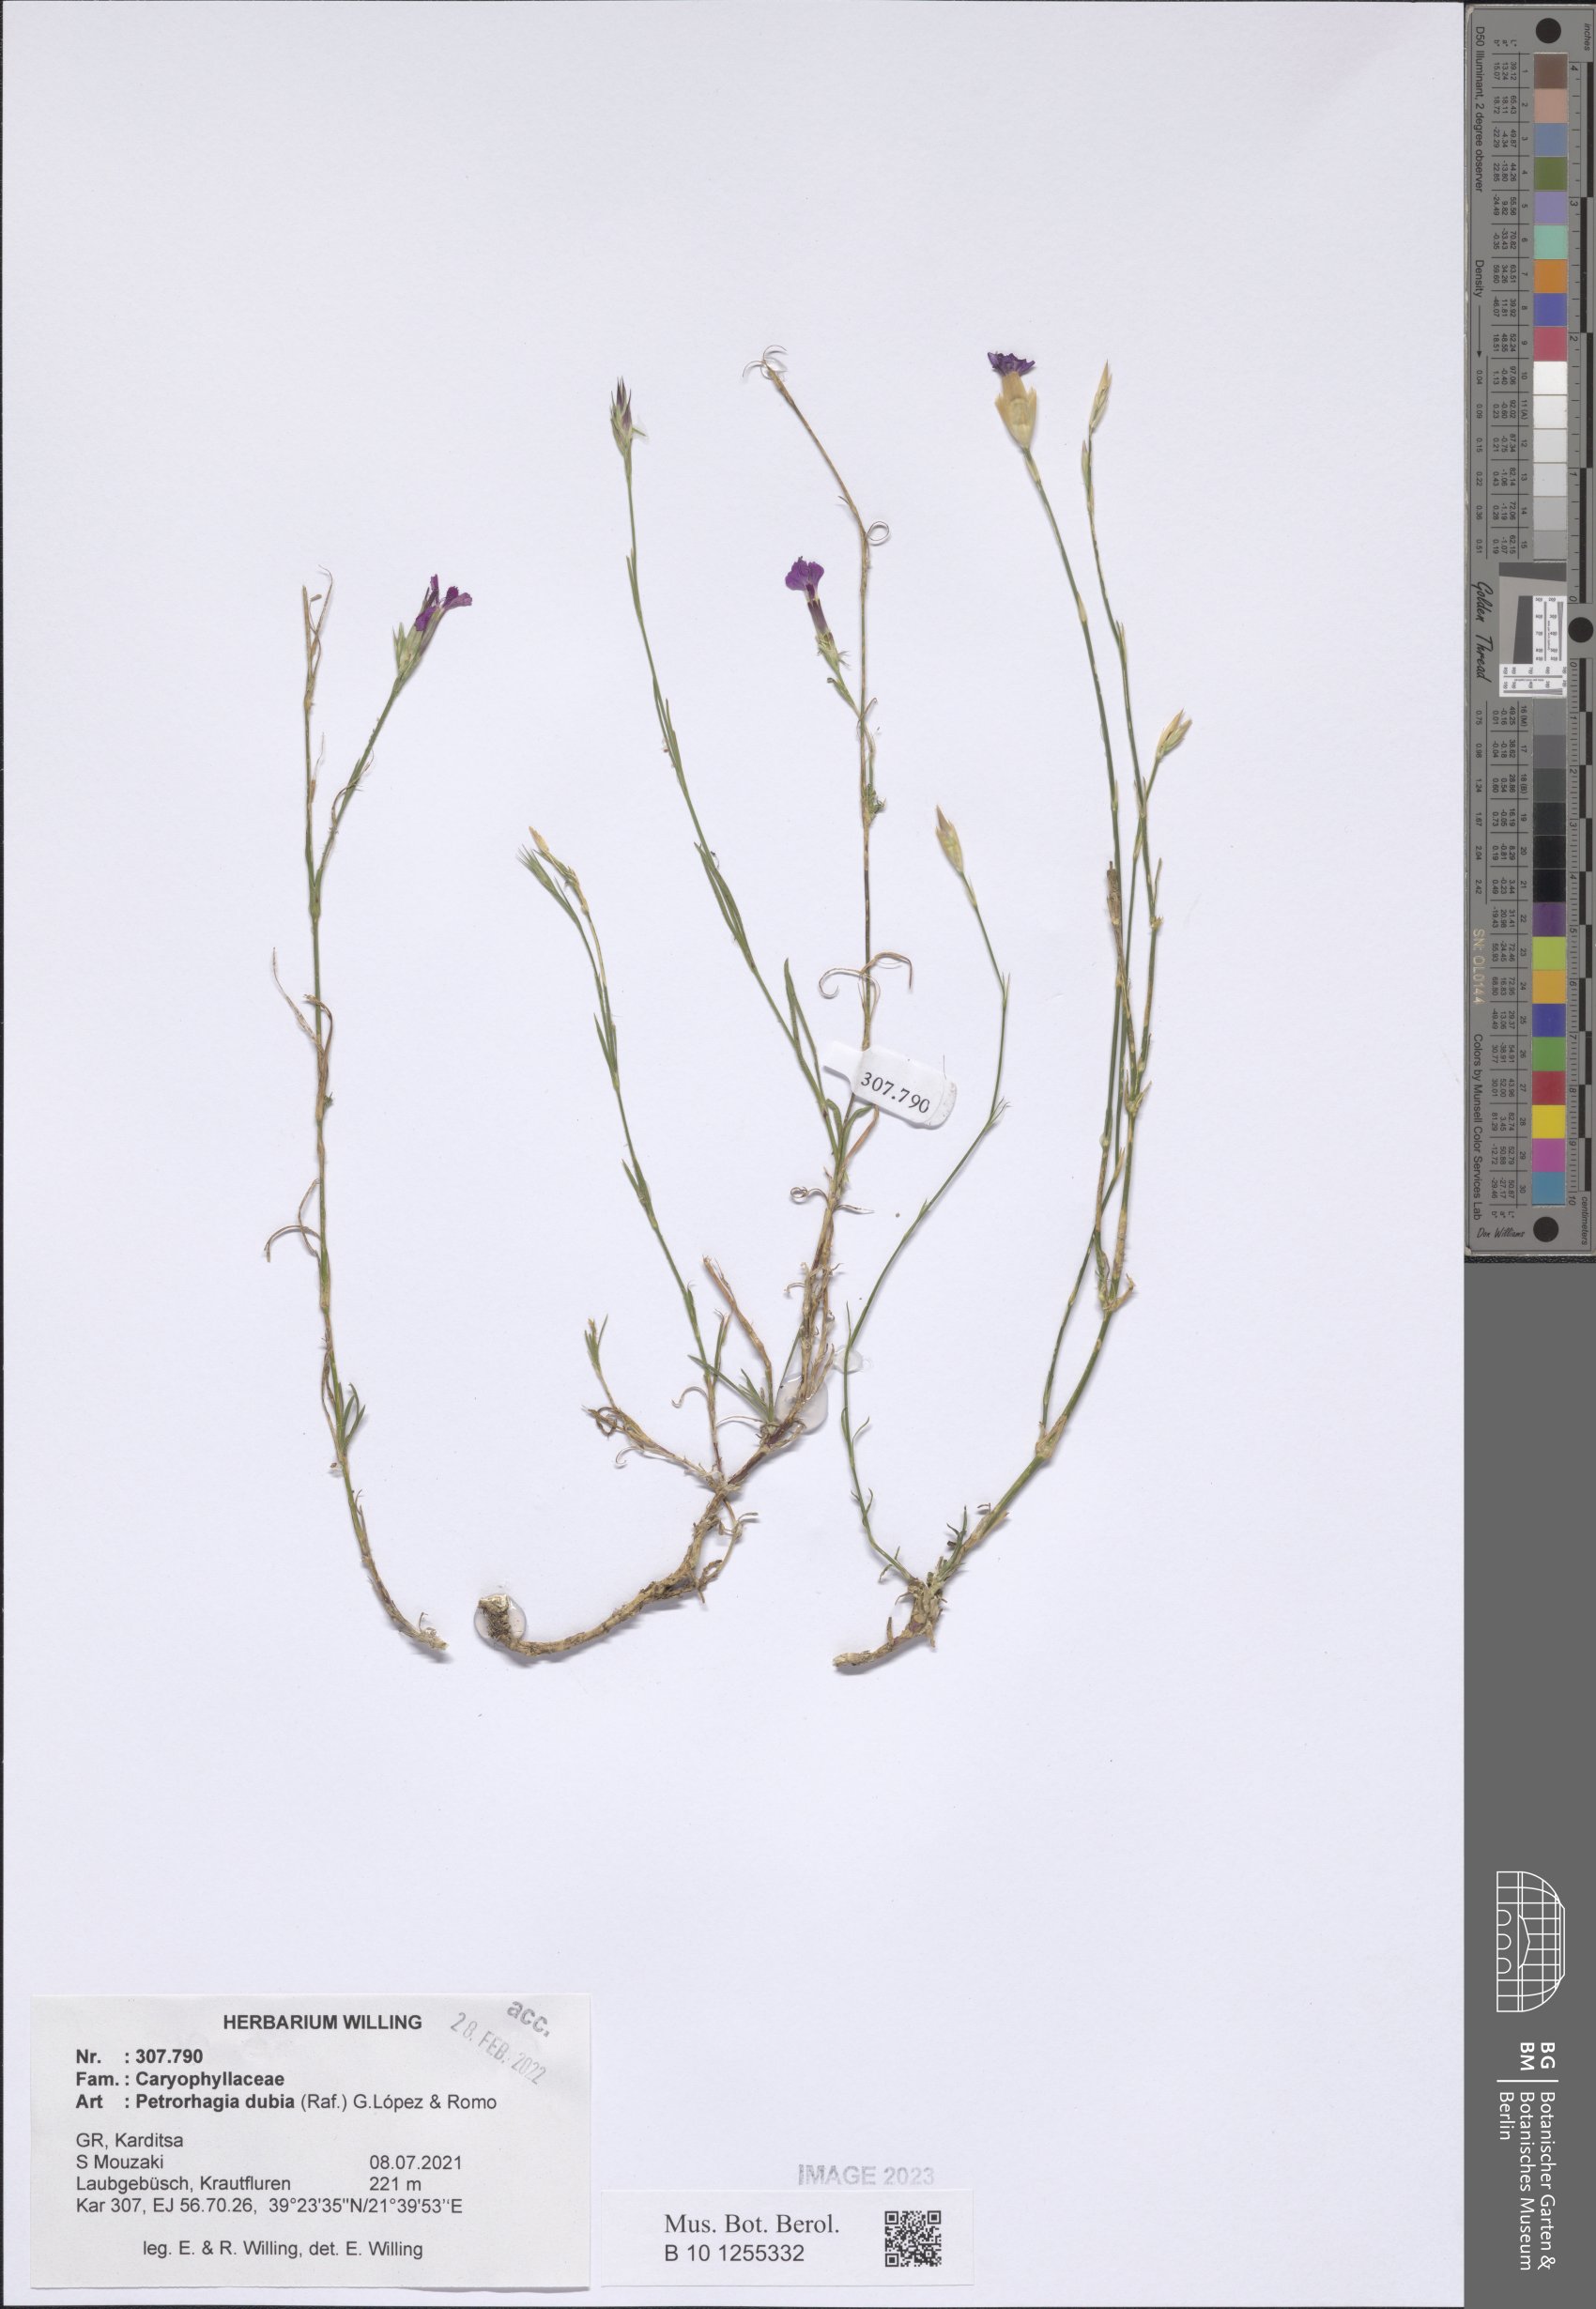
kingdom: Plantae
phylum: Tracheophyta
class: Magnoliopsida
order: Caryophyllales
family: Caryophyllaceae
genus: Petrorhagia
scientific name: Petrorhagia dubia
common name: Hairypink
